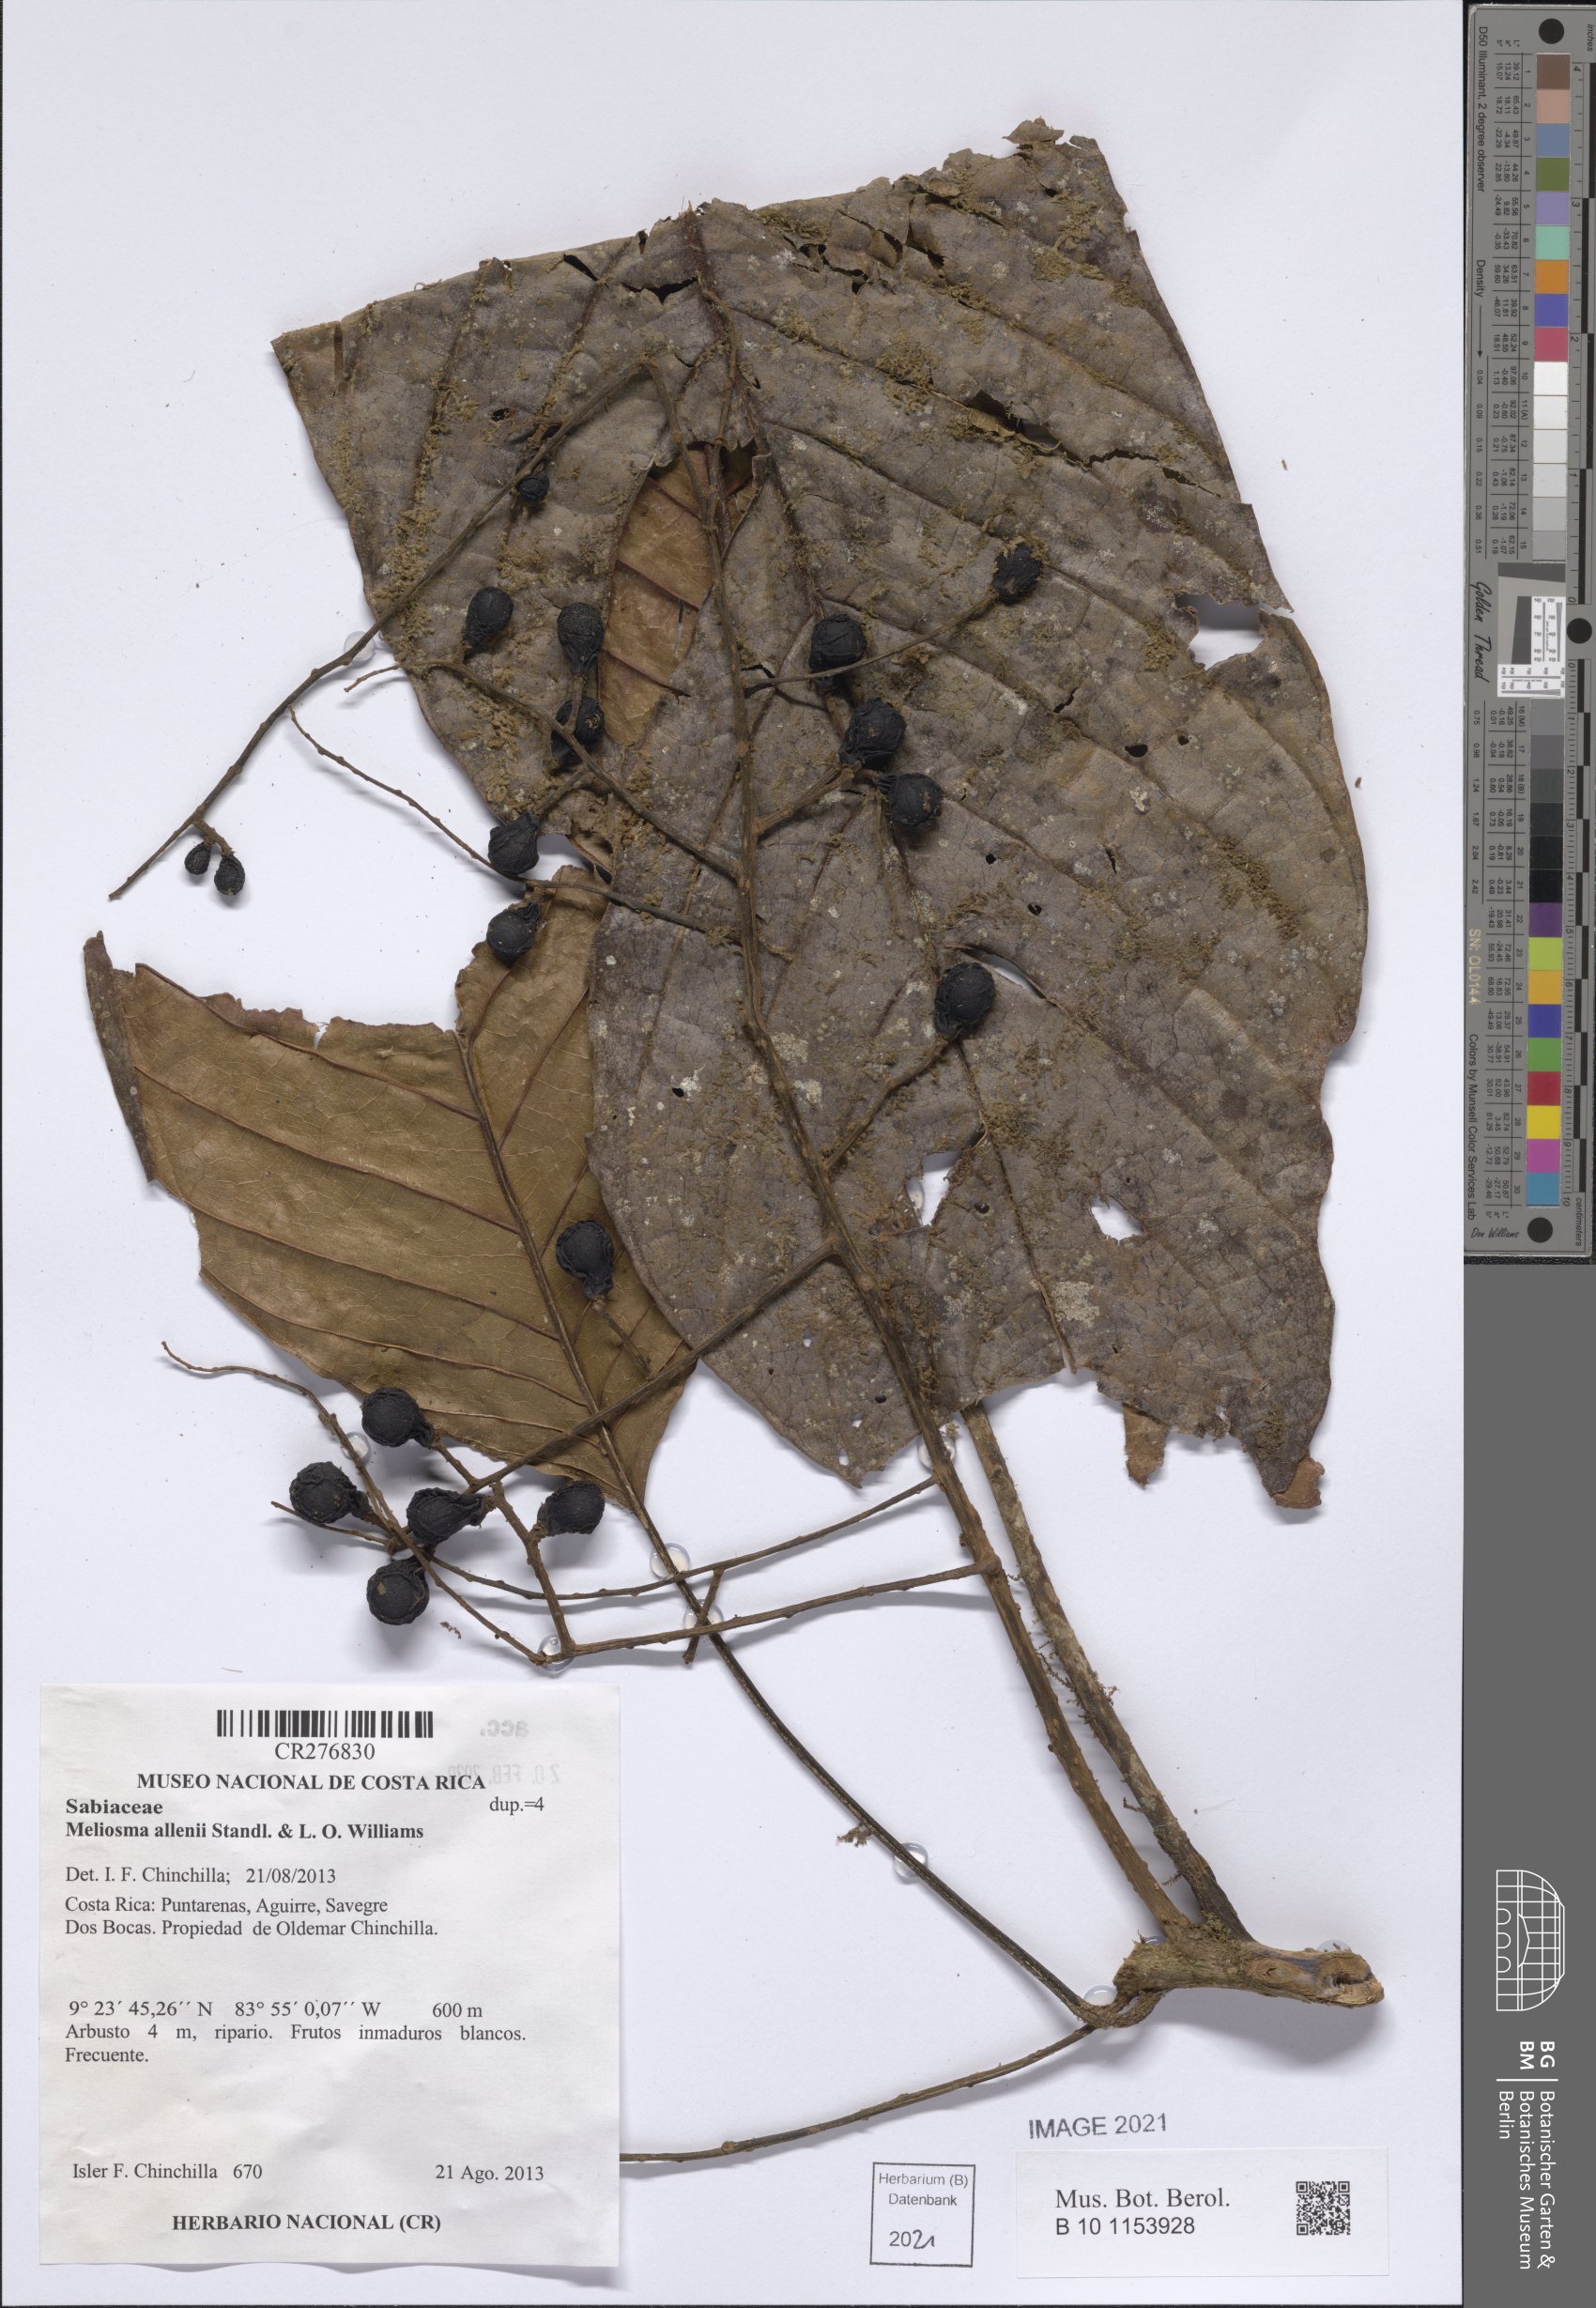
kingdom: Plantae
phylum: Tracheophyta
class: Magnoliopsida
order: Proteales
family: Sabiaceae
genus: Meliosma
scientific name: Meliosma allenii
